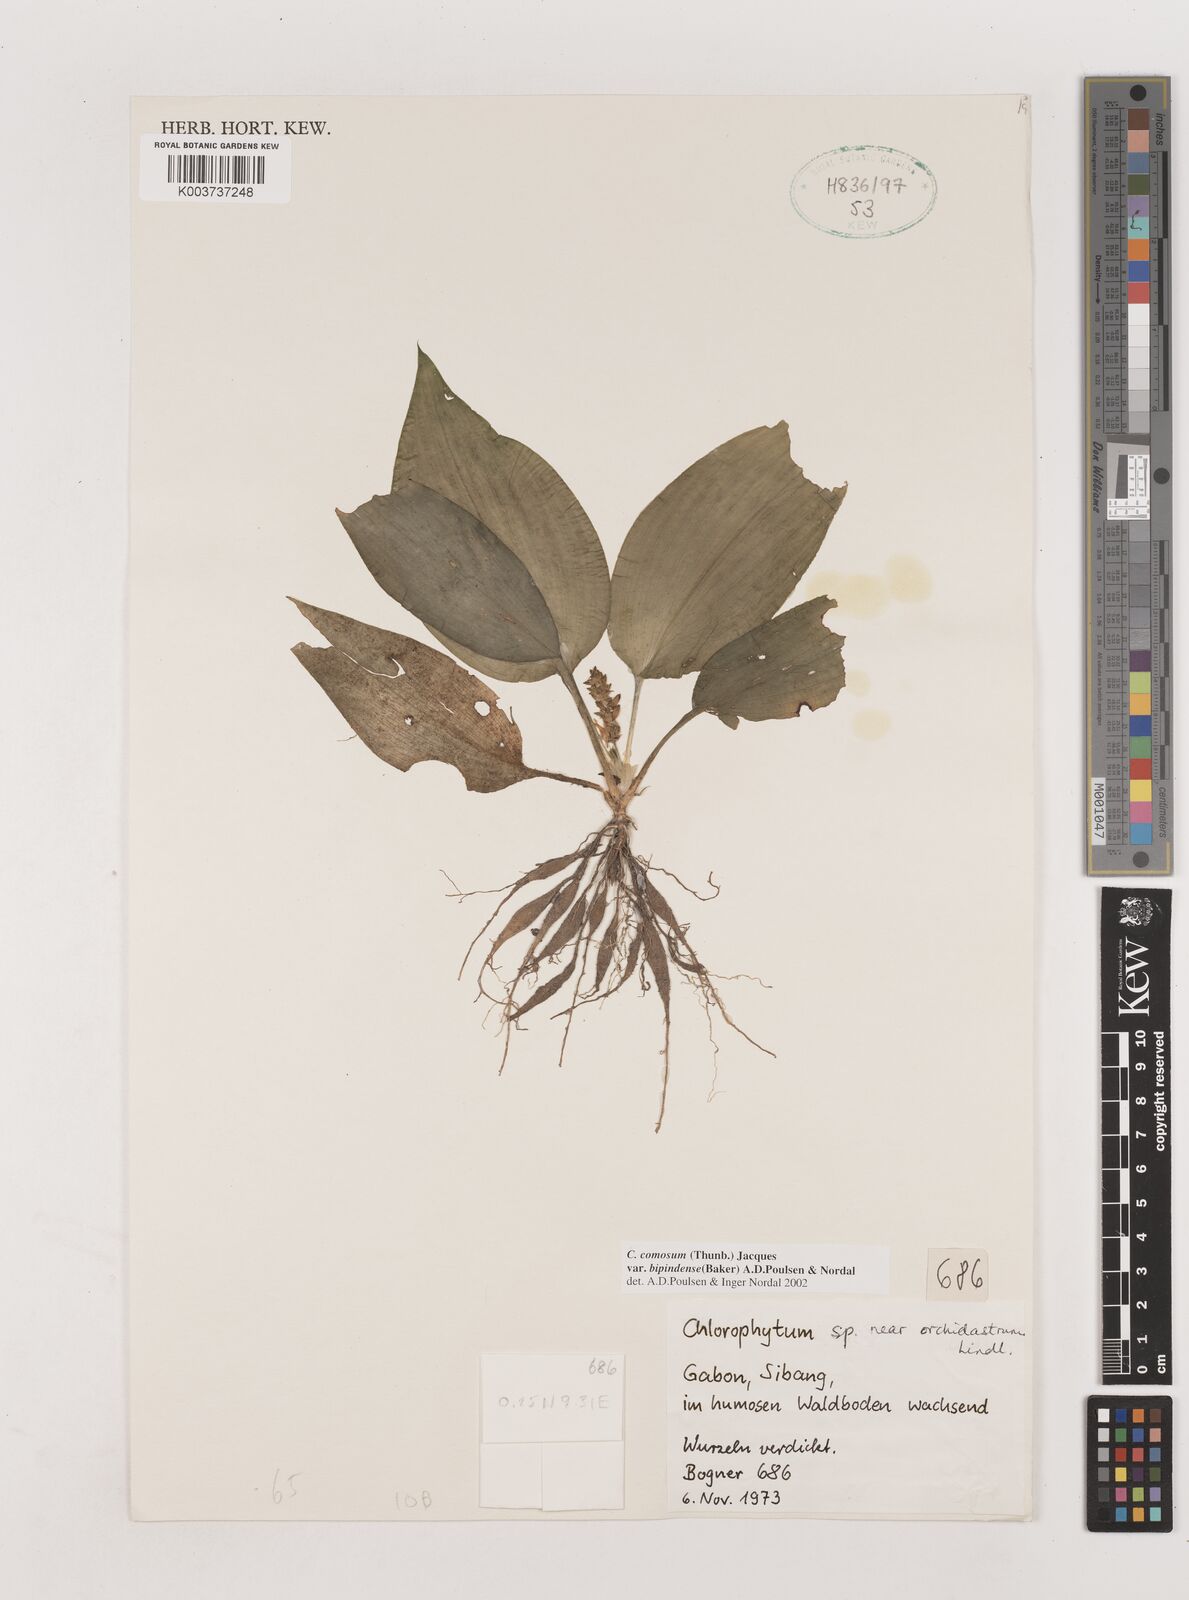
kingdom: Plantae
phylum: Tracheophyta
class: Liliopsida
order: Asparagales
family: Asparagaceae
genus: Chlorophytum
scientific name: Chlorophytum sparsiflorum
